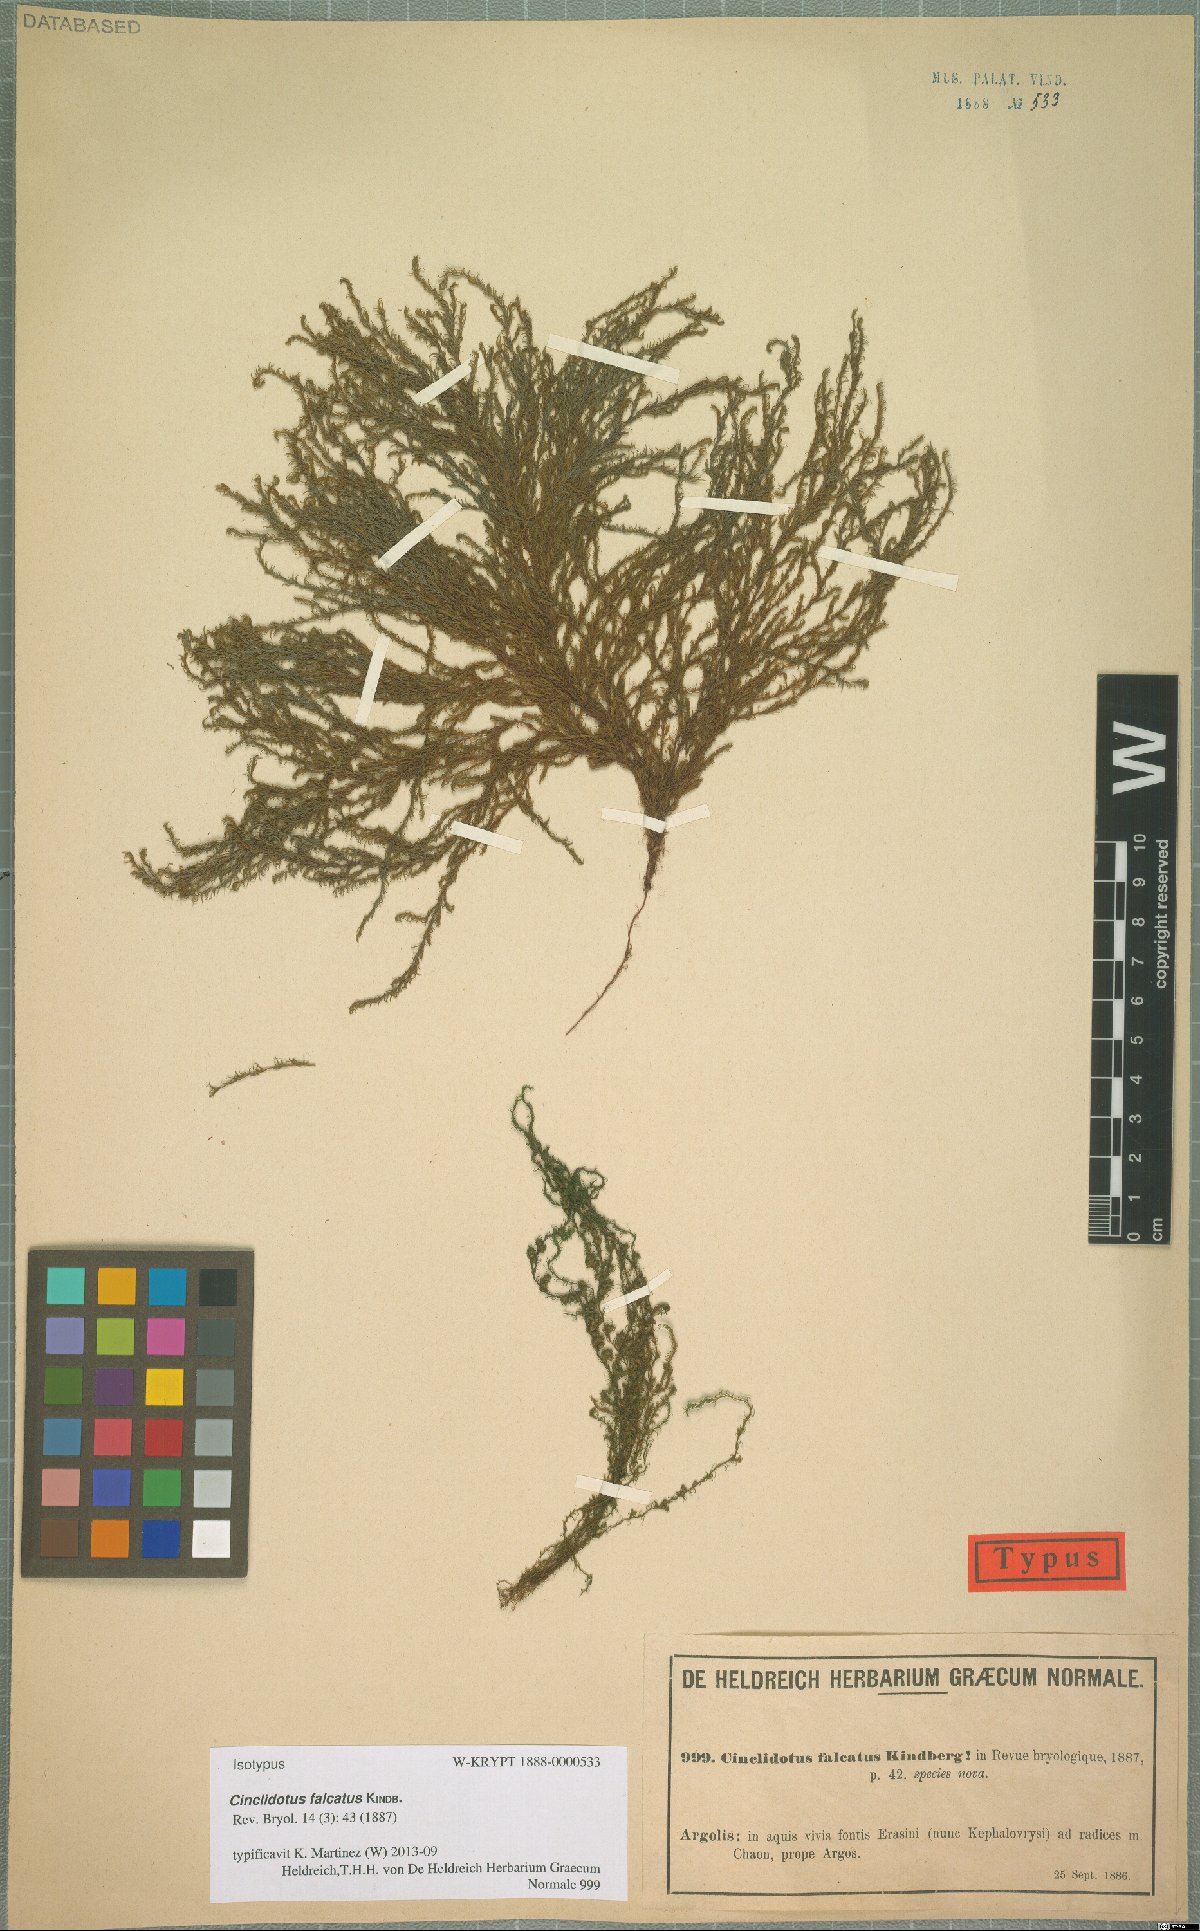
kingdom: Plantae
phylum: Bryophyta
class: Bryopsida
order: Pottiales
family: Pottiaceae
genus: Cinclidotus
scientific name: Cinclidotus aquaticus
